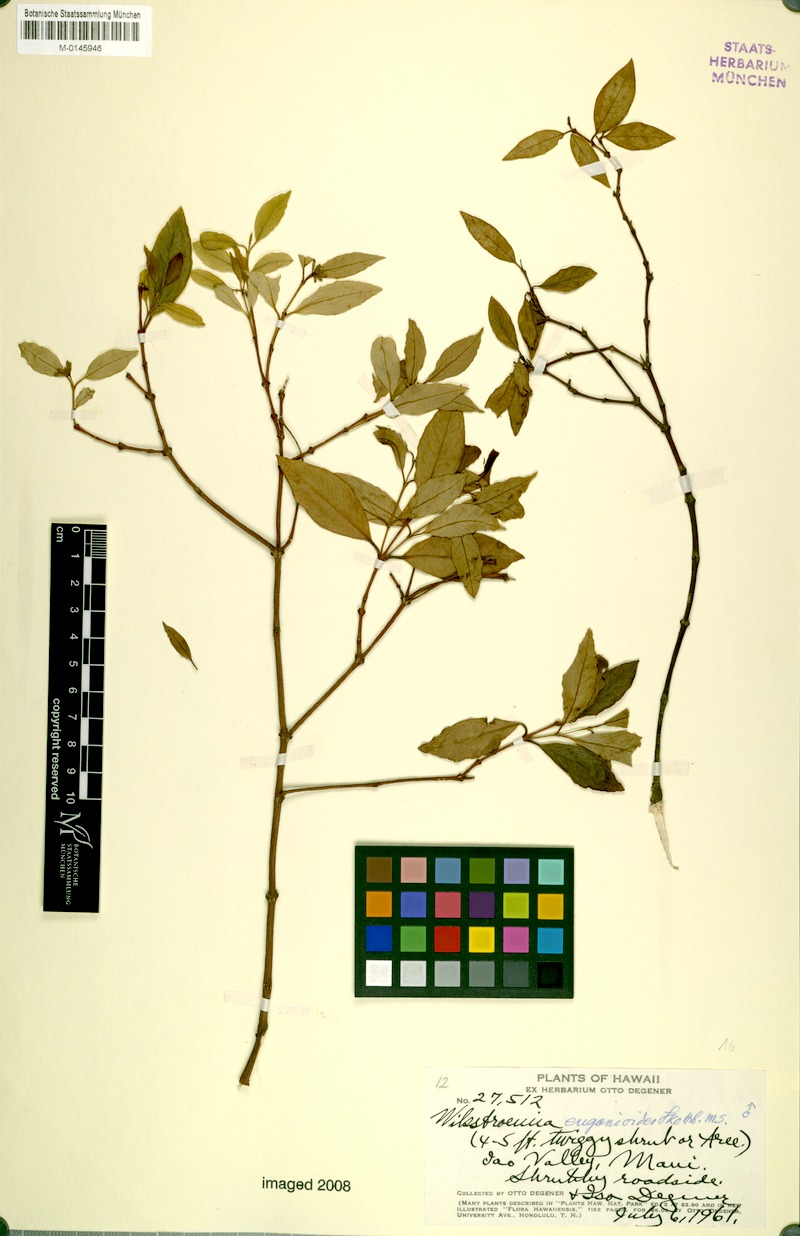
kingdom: Plantae
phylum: Tracheophyta
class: Magnoliopsida
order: Malvales
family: Thymelaeaceae
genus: Wikstroemia
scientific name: Wikstroemia oahuensis
